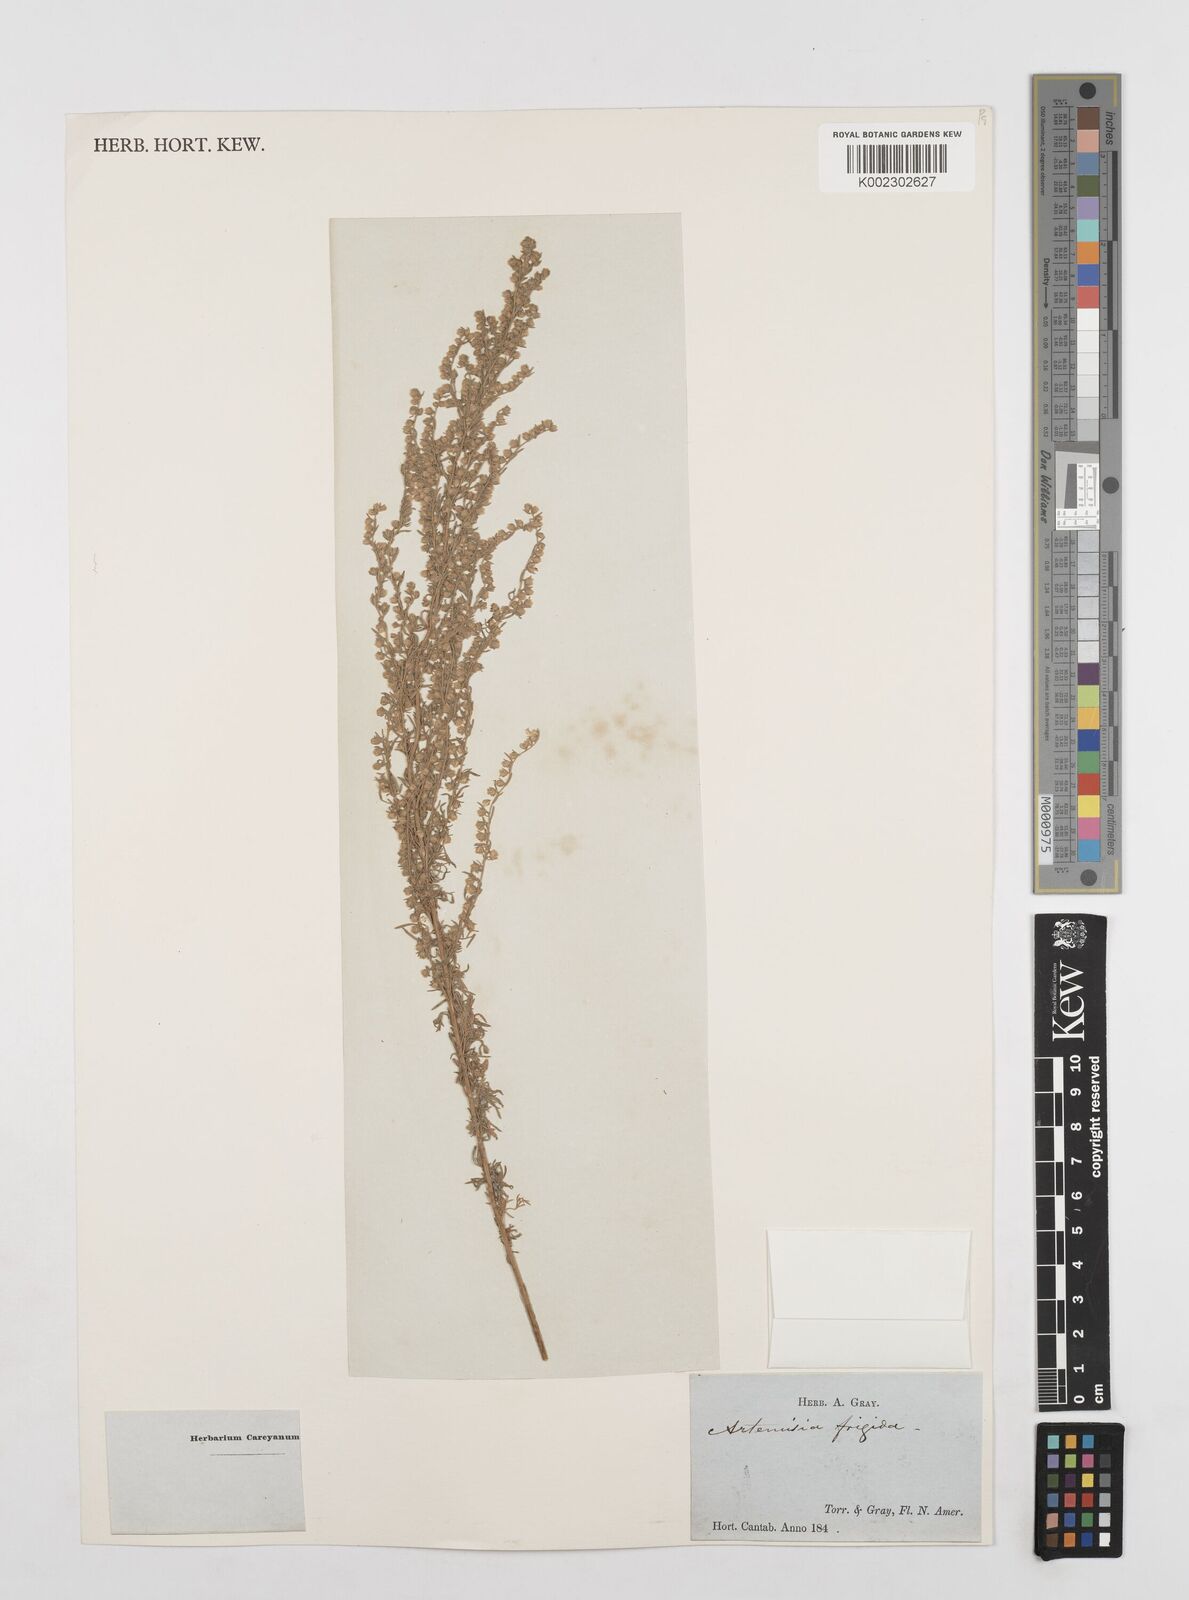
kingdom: Plantae
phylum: Tracheophyta
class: Magnoliopsida
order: Asterales
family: Asteraceae
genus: Artemisia
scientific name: Artemisia frigida
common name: Prairie sagewort
